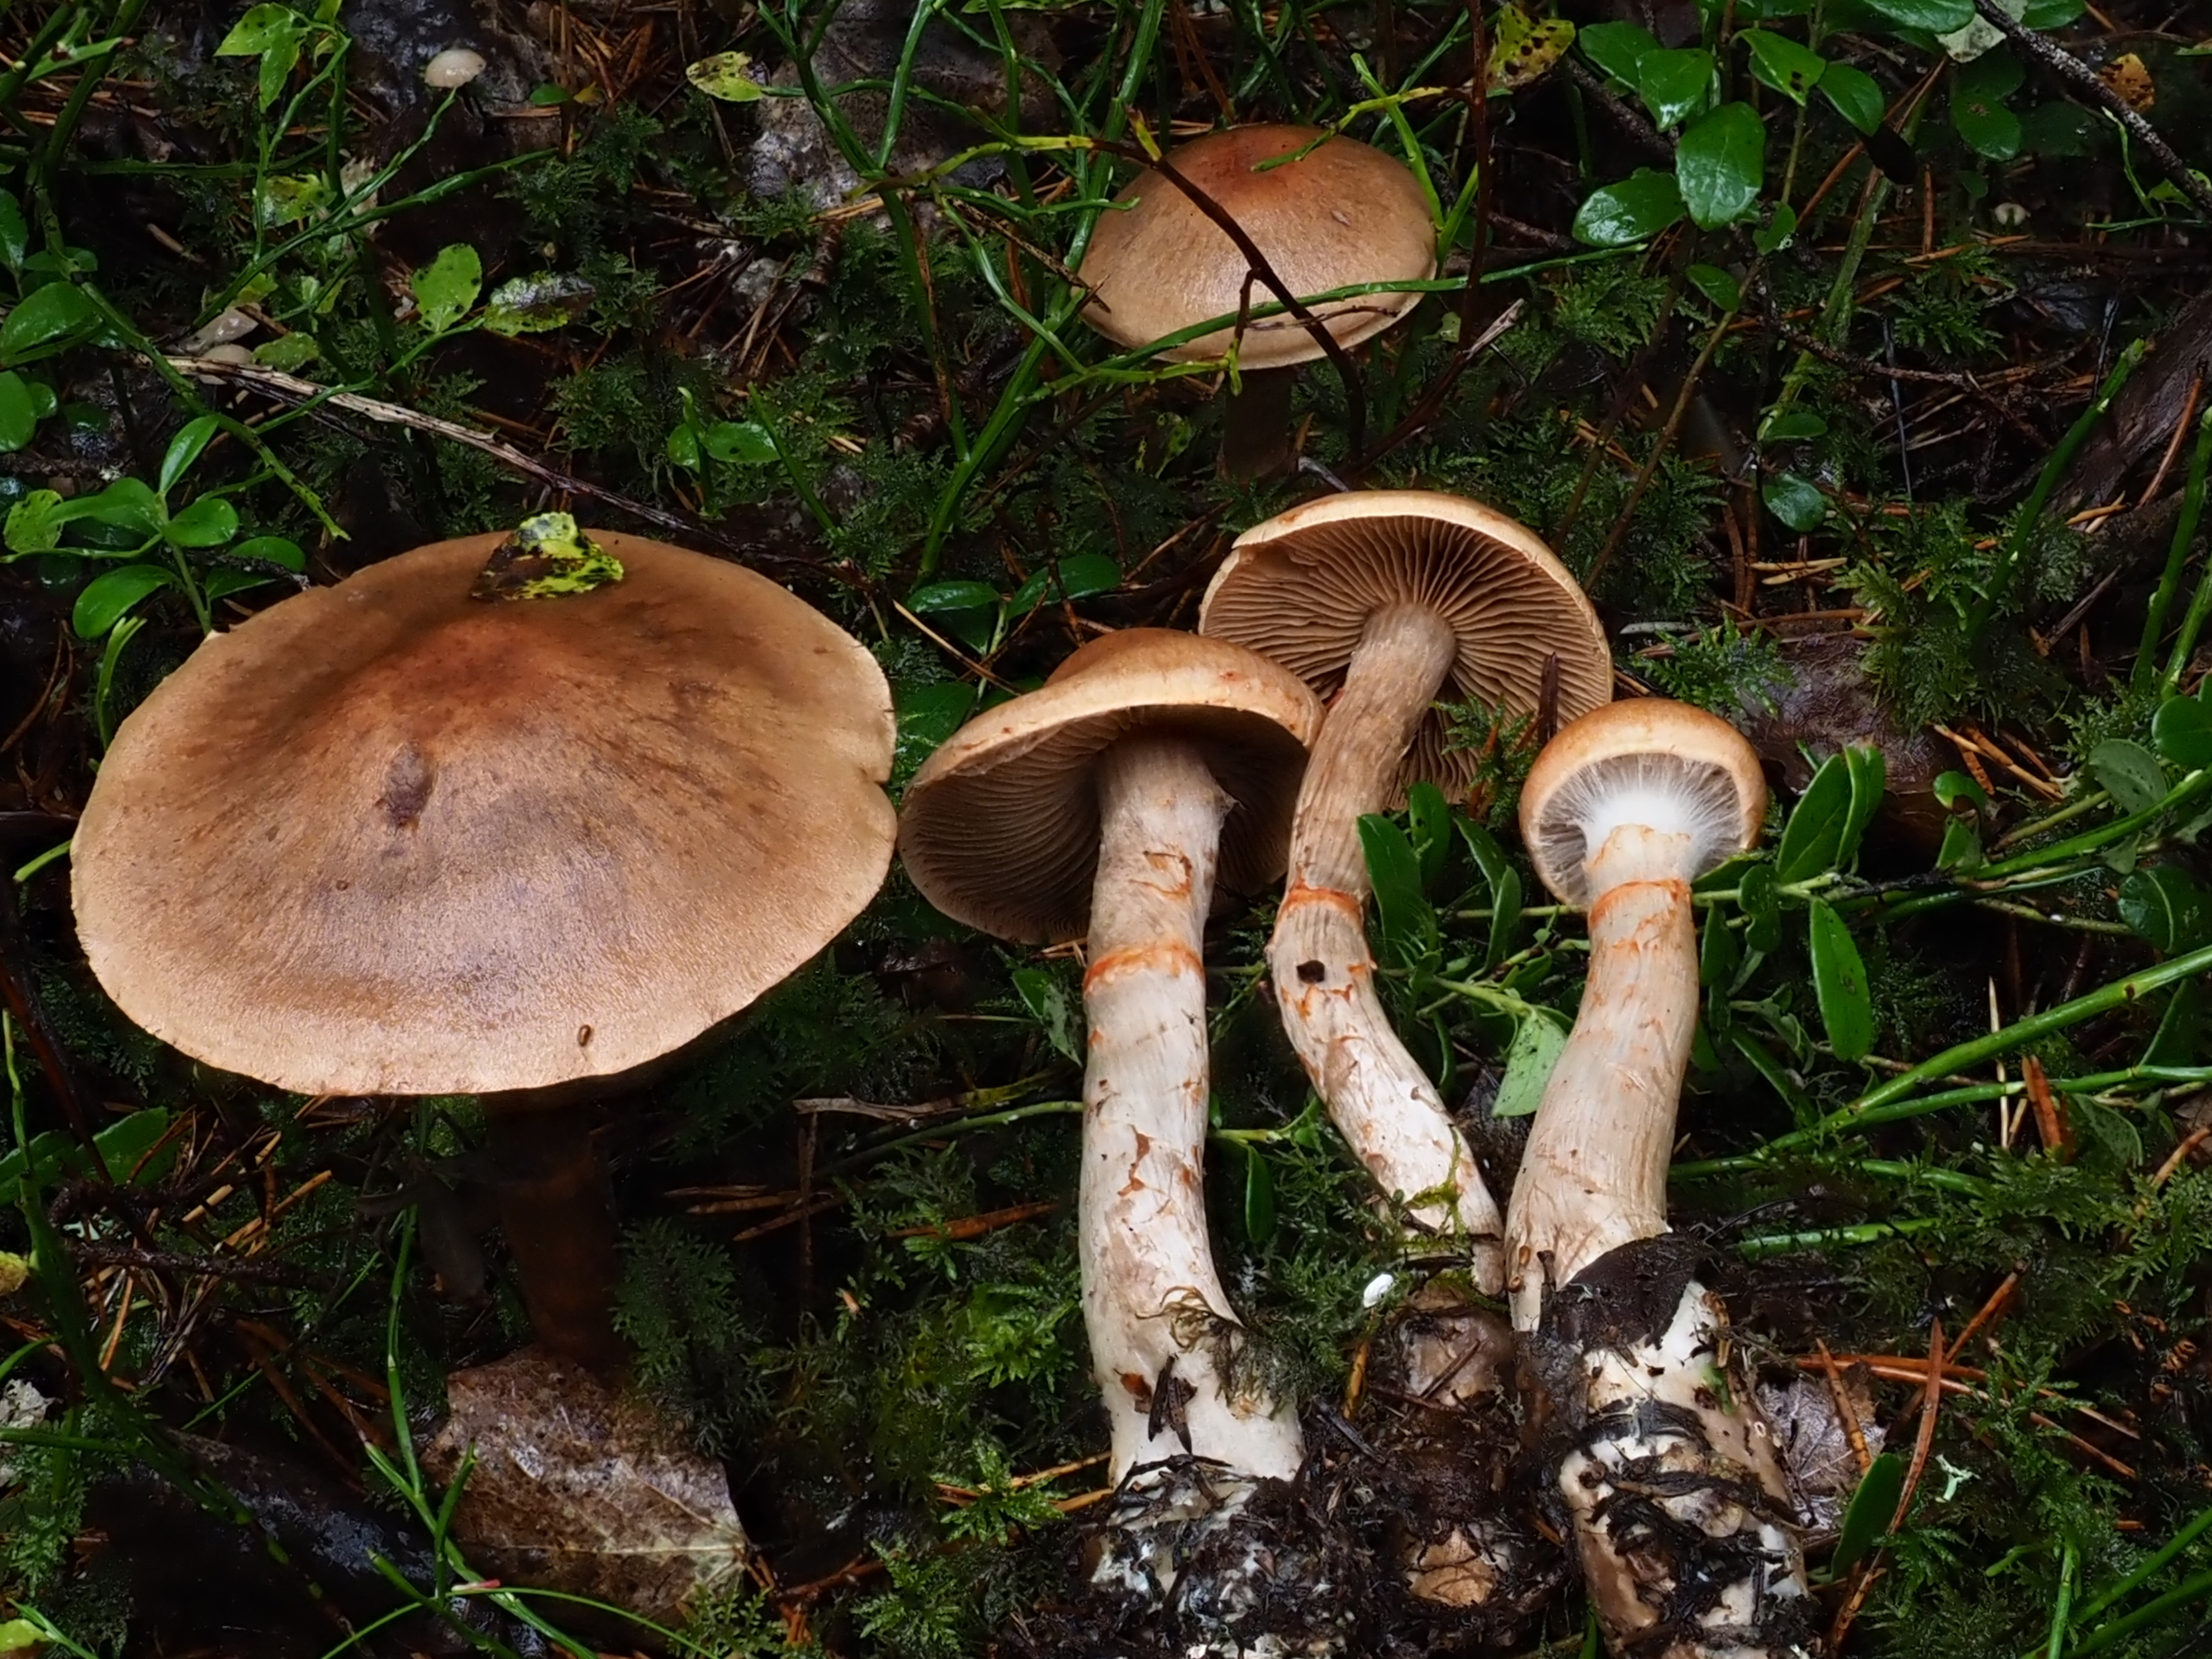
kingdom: Fungi
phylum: Basidiomycota
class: Agaricomycetes
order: Agaricales
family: Cortinariaceae
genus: Cortinarius
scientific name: Cortinarius armillatus
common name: Red banded webcap
